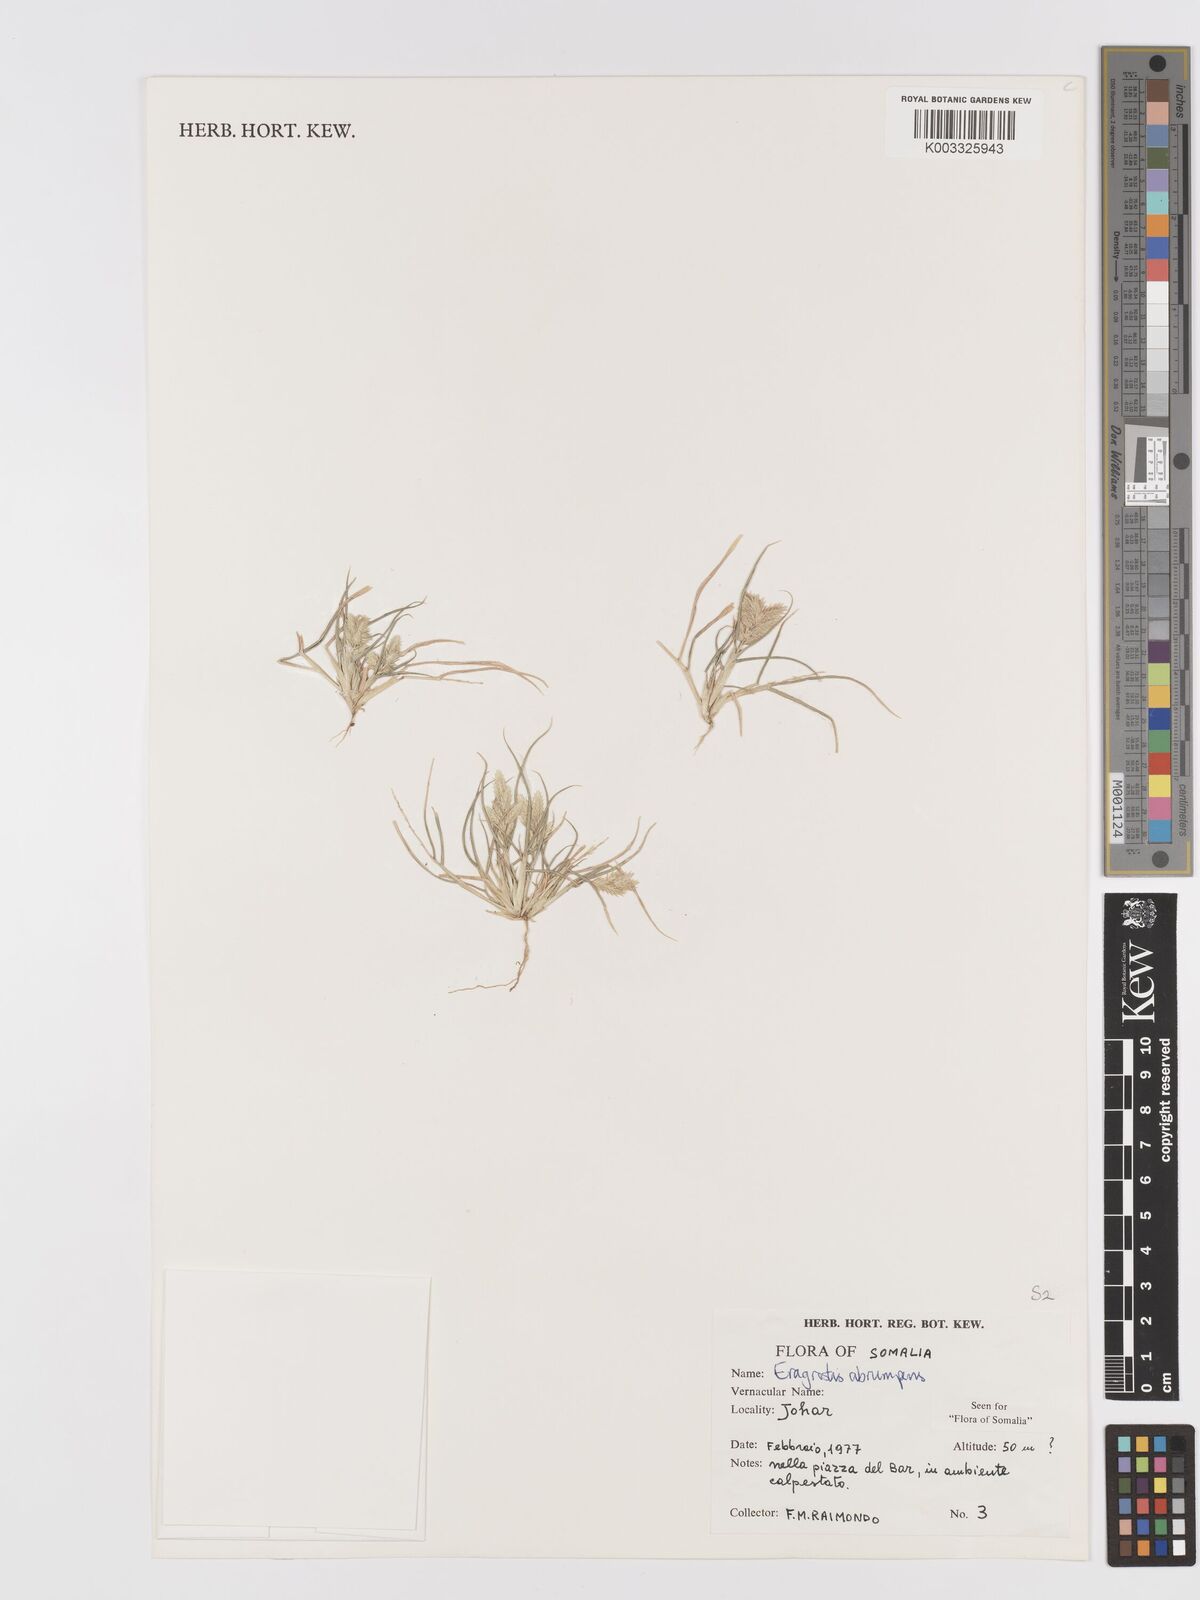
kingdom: Plantae
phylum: Tracheophyta
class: Liliopsida
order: Poales
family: Poaceae
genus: Eragrostis
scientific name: Eragrostis sennii
